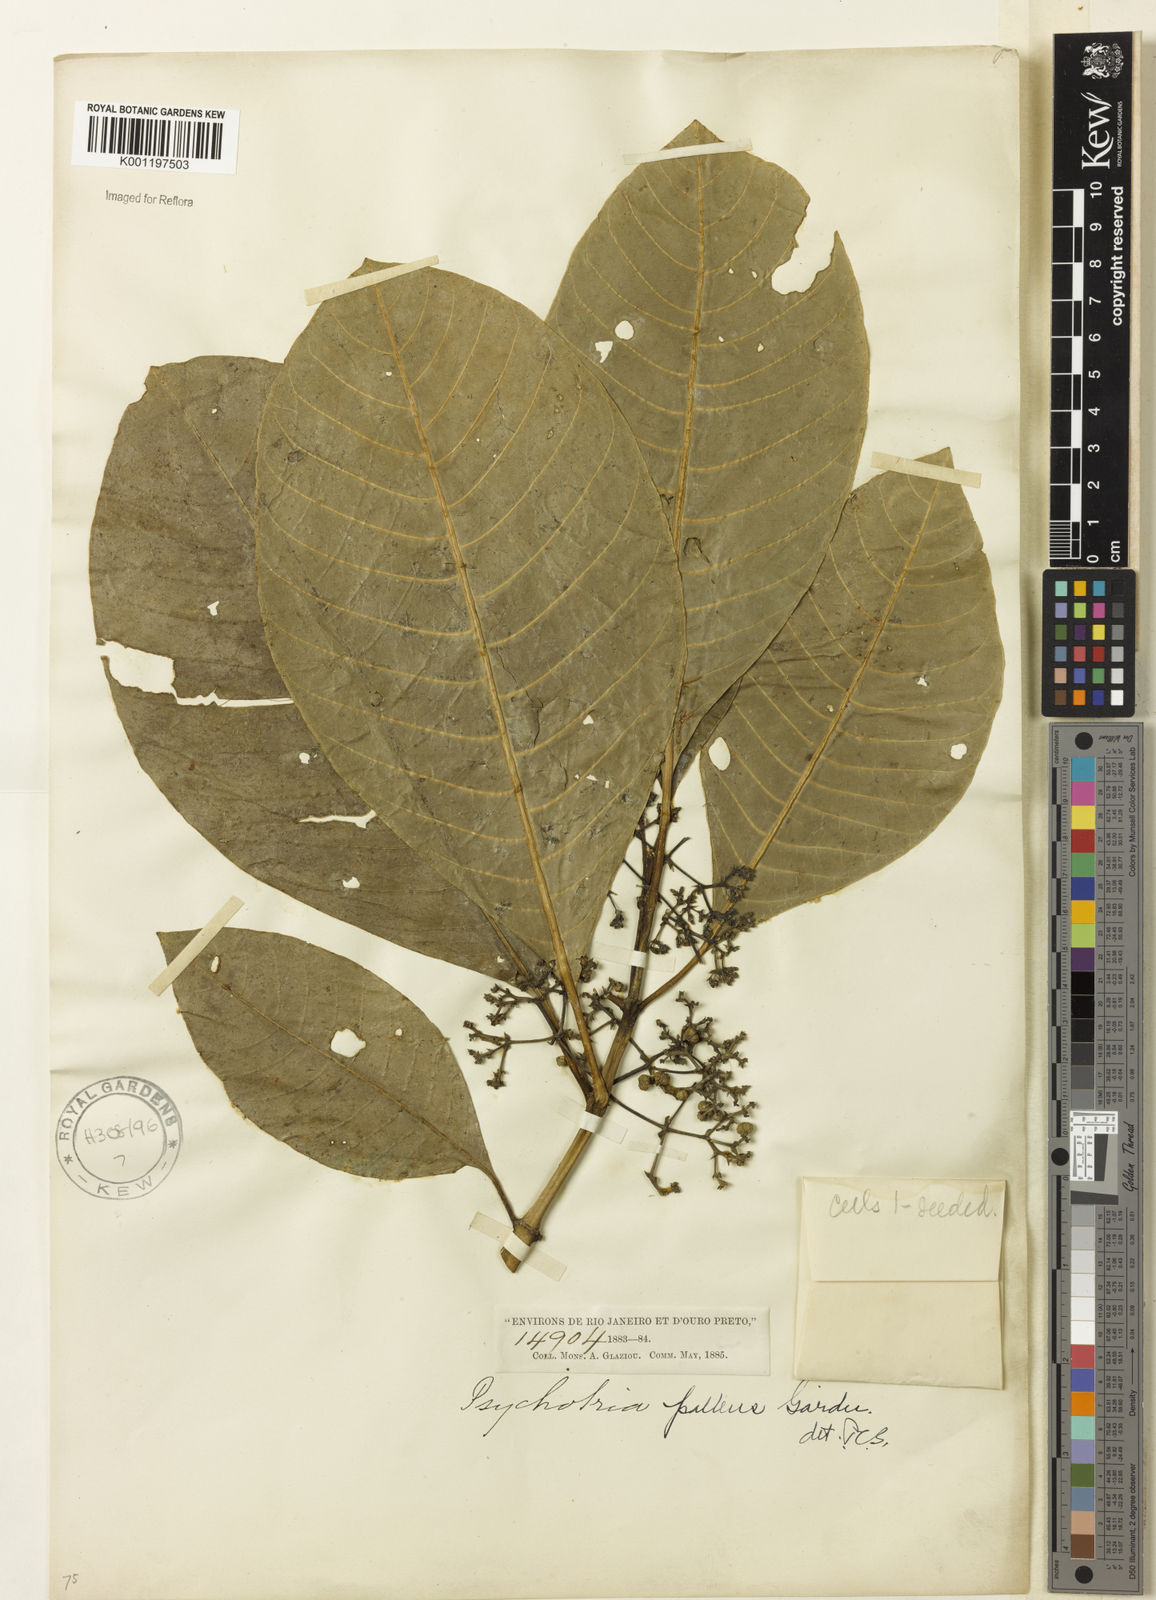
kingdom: Plantae
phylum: Tracheophyta
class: Magnoliopsida
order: Gentianales
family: Rubiaceae
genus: Psychotria
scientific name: Psychotria pallens
